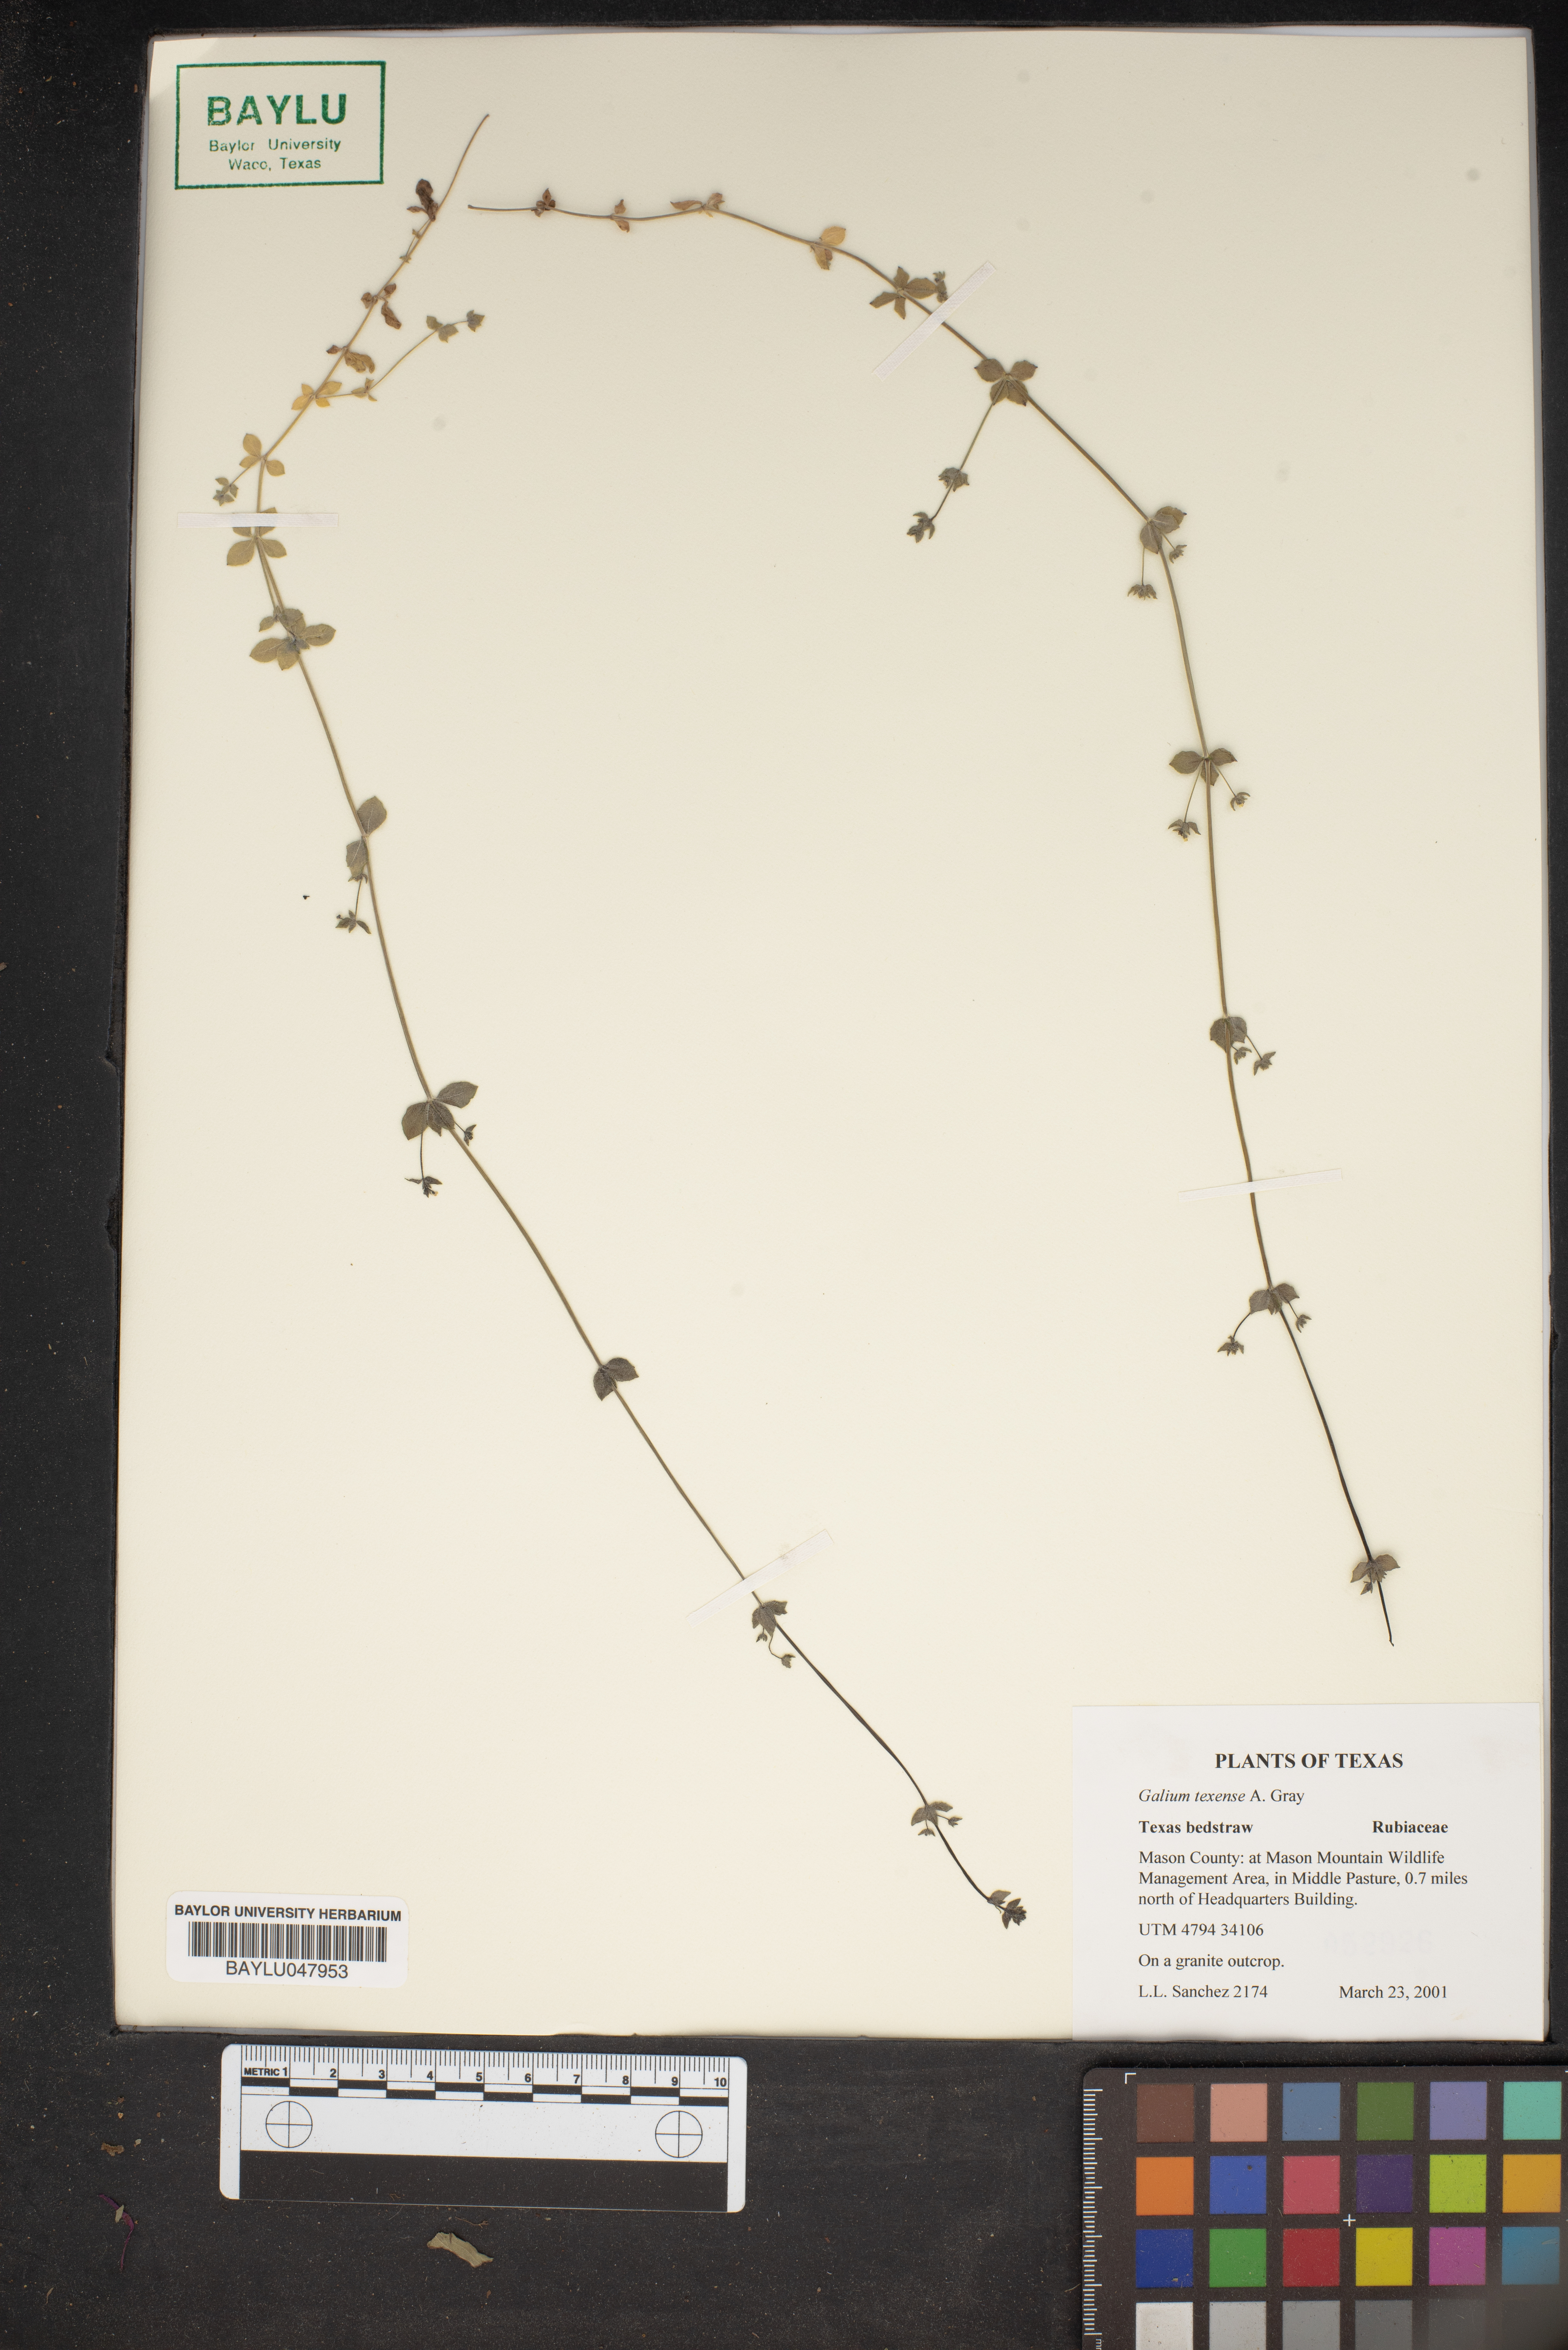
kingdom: Plantae
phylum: Tracheophyta
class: Magnoliopsida
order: Gentianales
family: Rubiaceae
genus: Galium
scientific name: Galium texense
